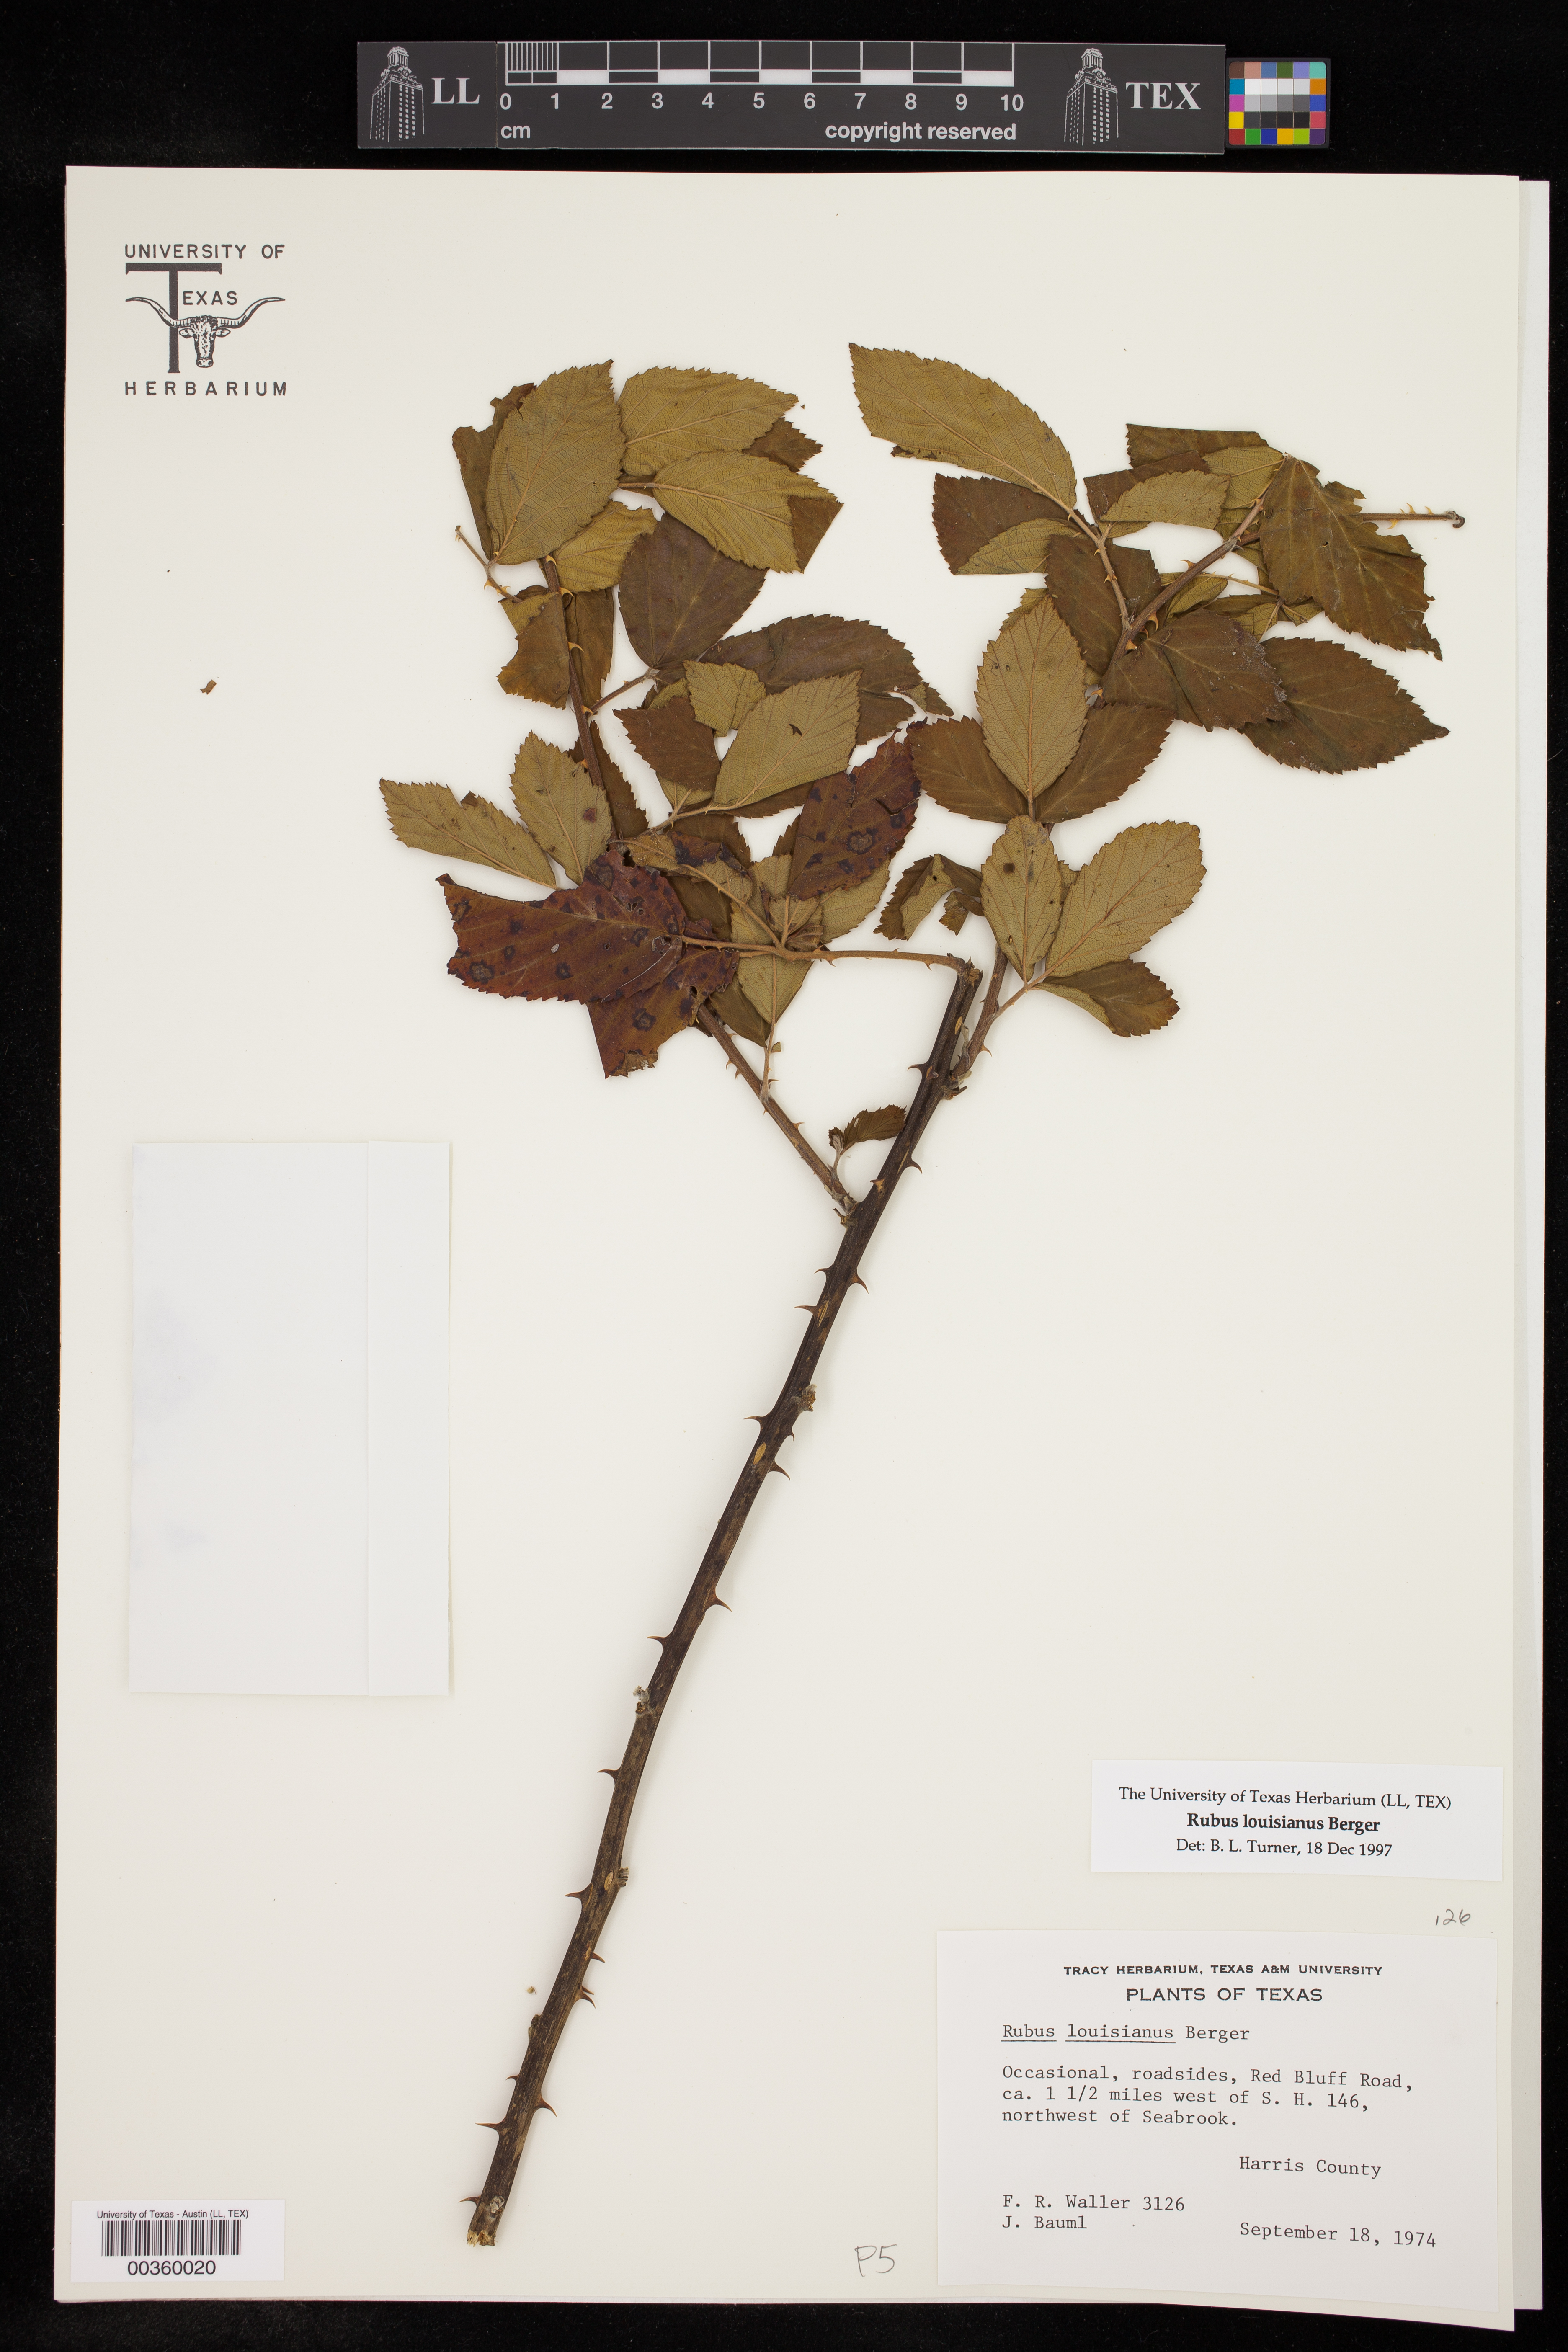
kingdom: Plantae
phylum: Tracheophyta
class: Magnoliopsida
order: Rosales
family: Rosaceae
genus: Rubus
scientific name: Rubus argutus
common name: Sawtooth blackberry
